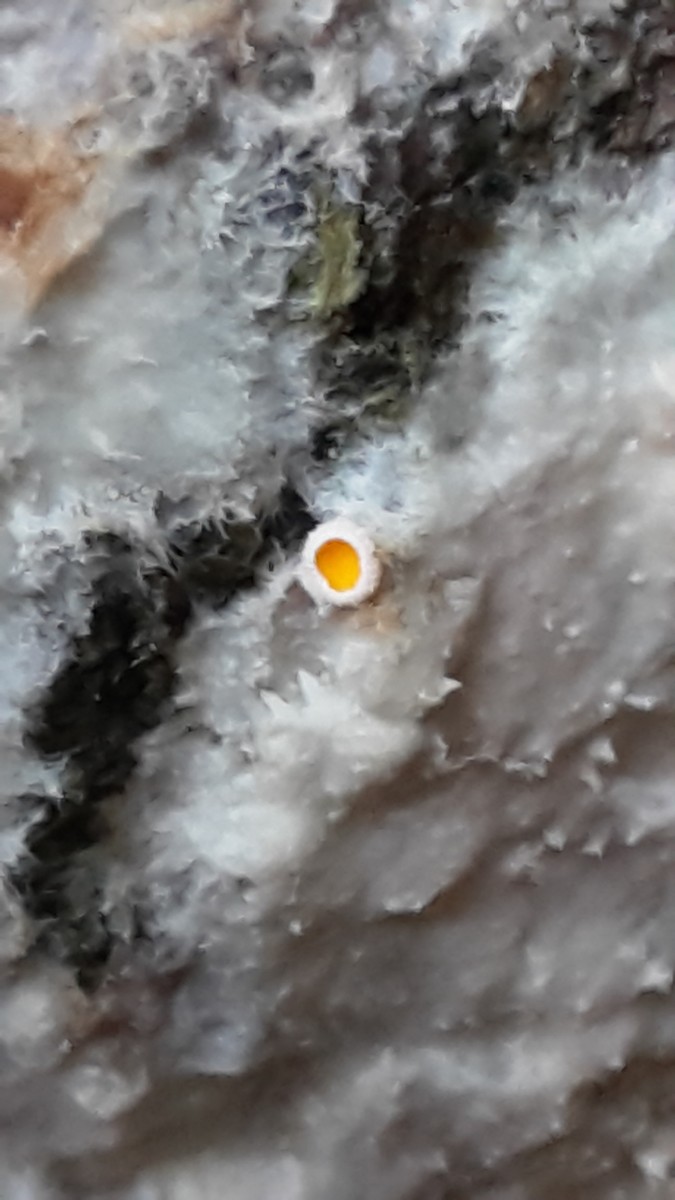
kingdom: Fungi
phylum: Basidiomycota
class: Agaricomycetes
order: Polyporales
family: Phanerochaetaceae
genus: Phlebiopsis
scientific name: Phlebiopsis gigantea
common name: kæmpebarksvamp
